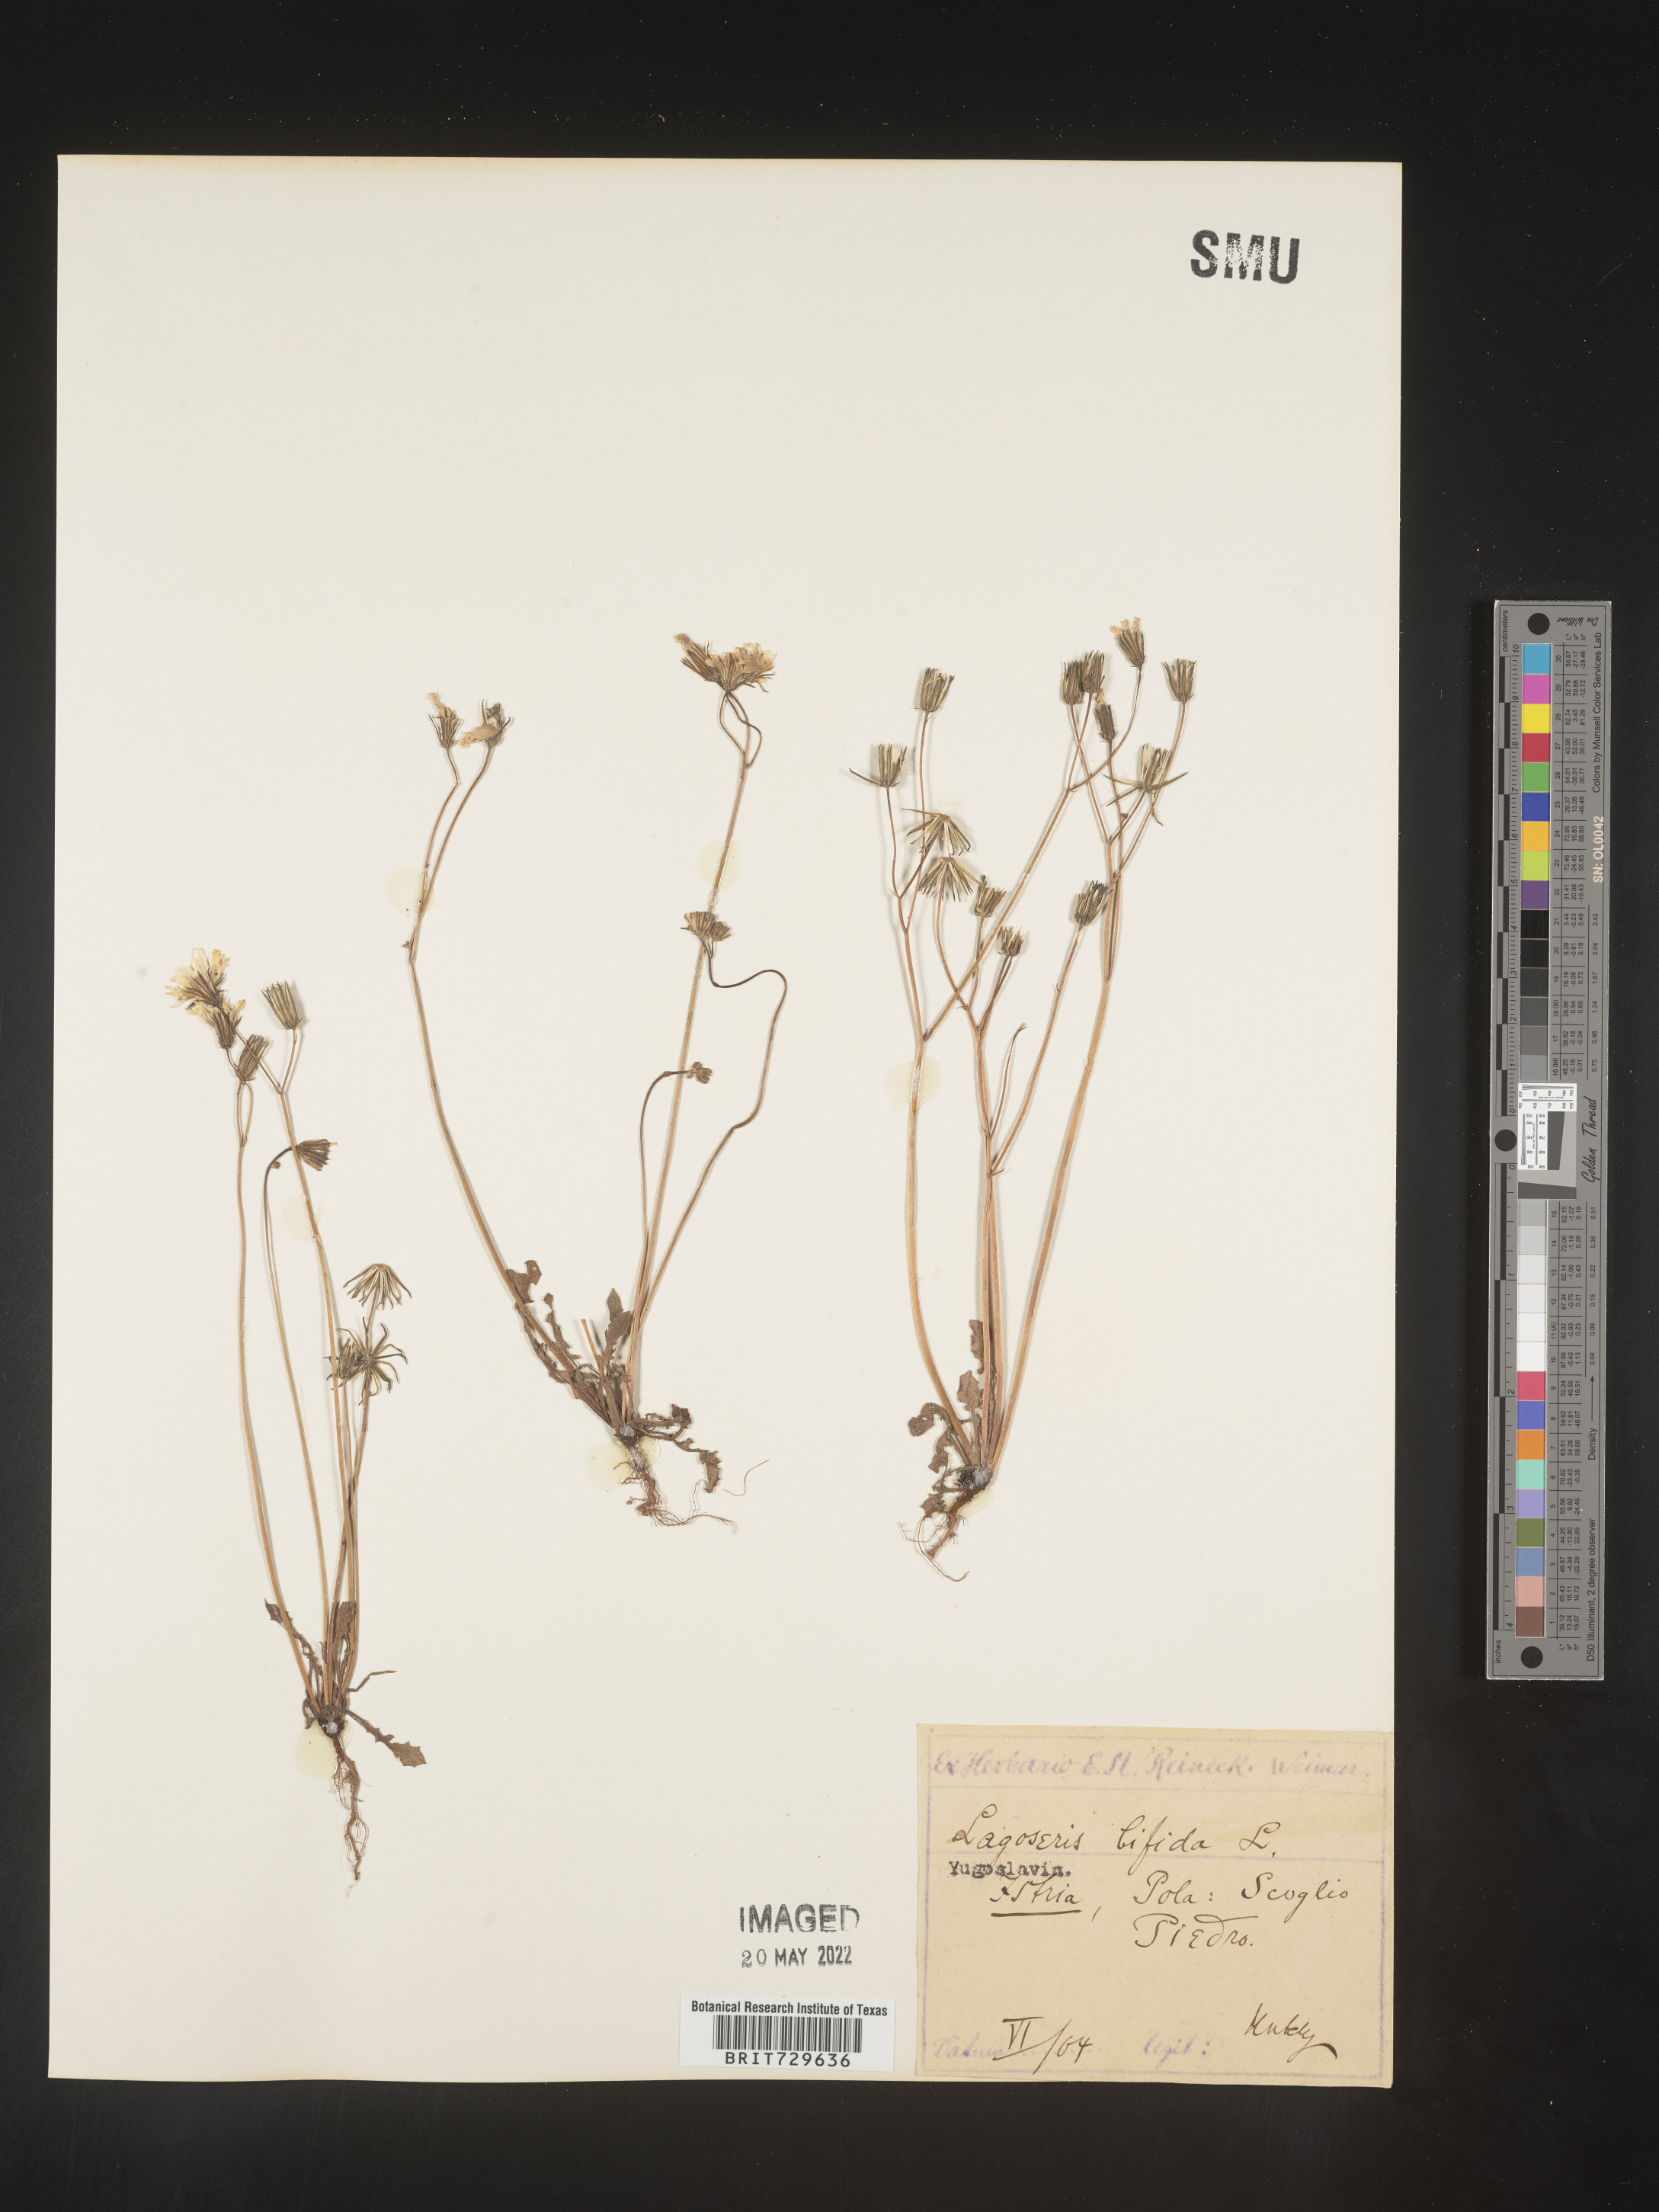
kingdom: Plantae
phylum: Tracheophyta
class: Magnoliopsida
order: Asterales
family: Asteraceae
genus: Lagoseris
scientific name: Lagoseris
